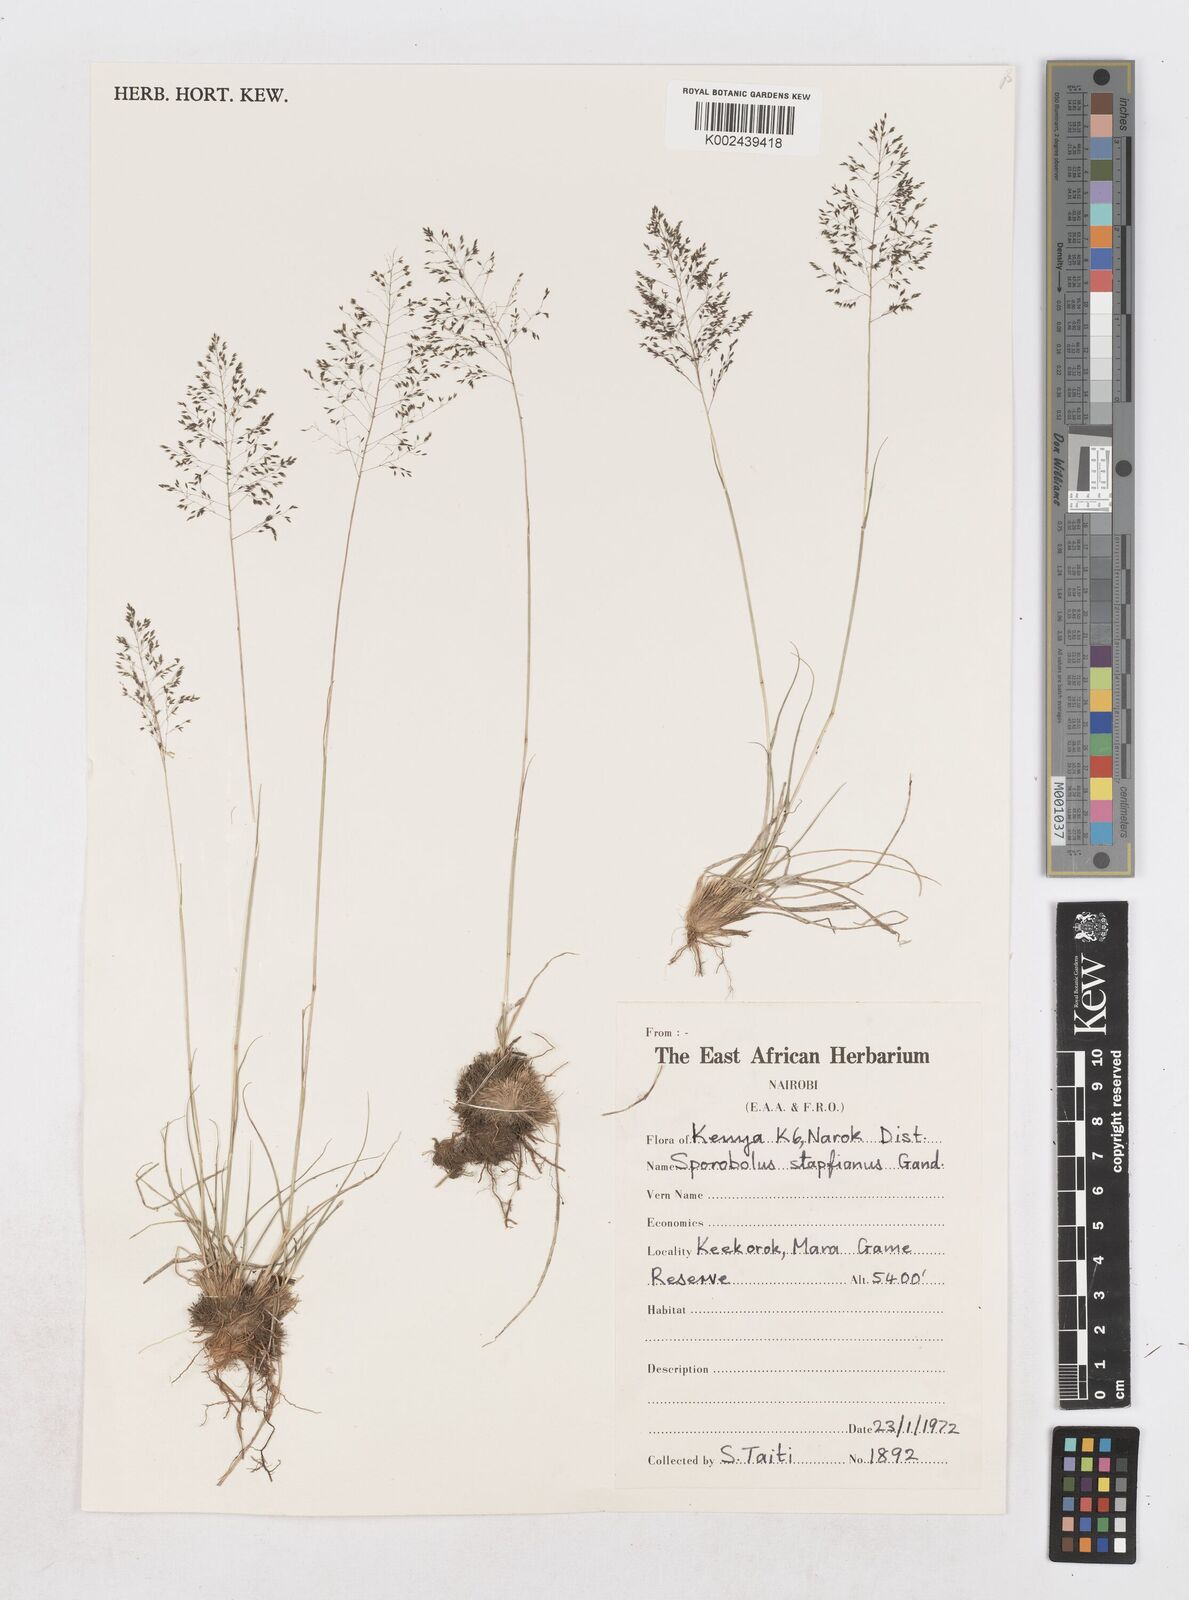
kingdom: Plantae
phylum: Tracheophyta
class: Liliopsida
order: Poales
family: Poaceae
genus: Sporobolus
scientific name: Sporobolus stapfianus
